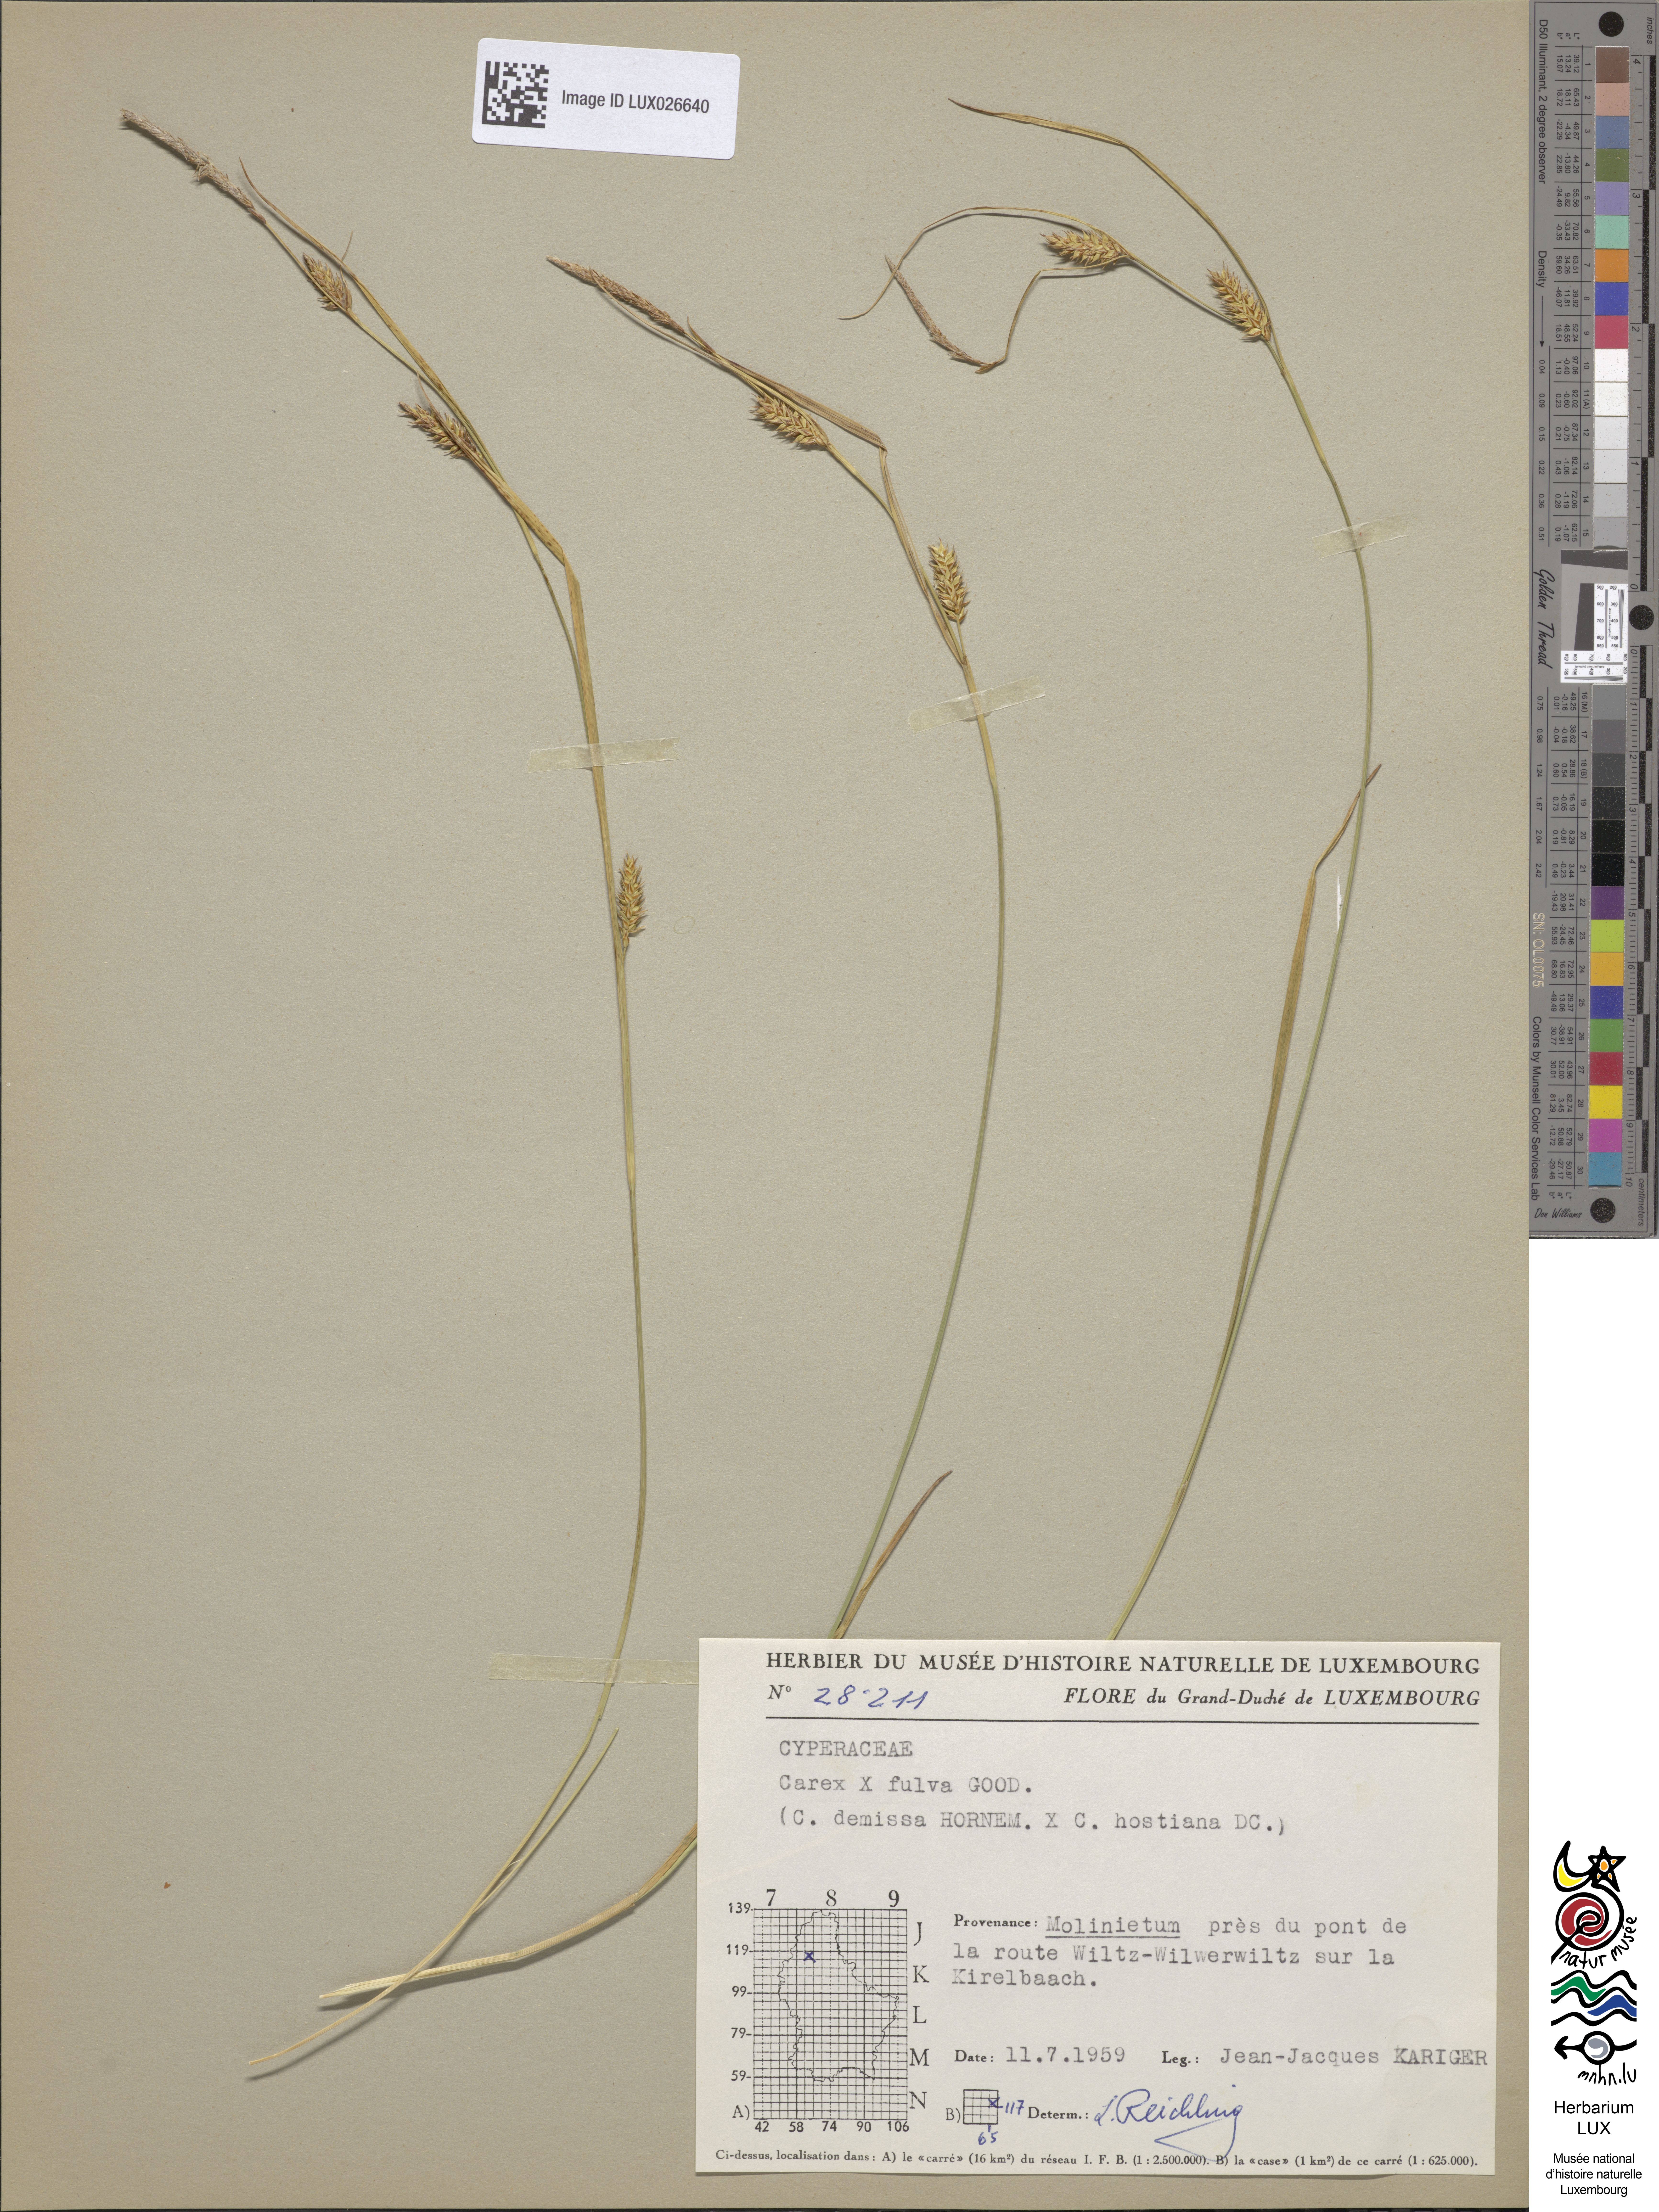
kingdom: Plantae
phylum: Tracheophyta
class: Liliopsida
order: Poales
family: Cyperaceae
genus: Carex
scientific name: Carex fulva
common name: Leutz's sedge
